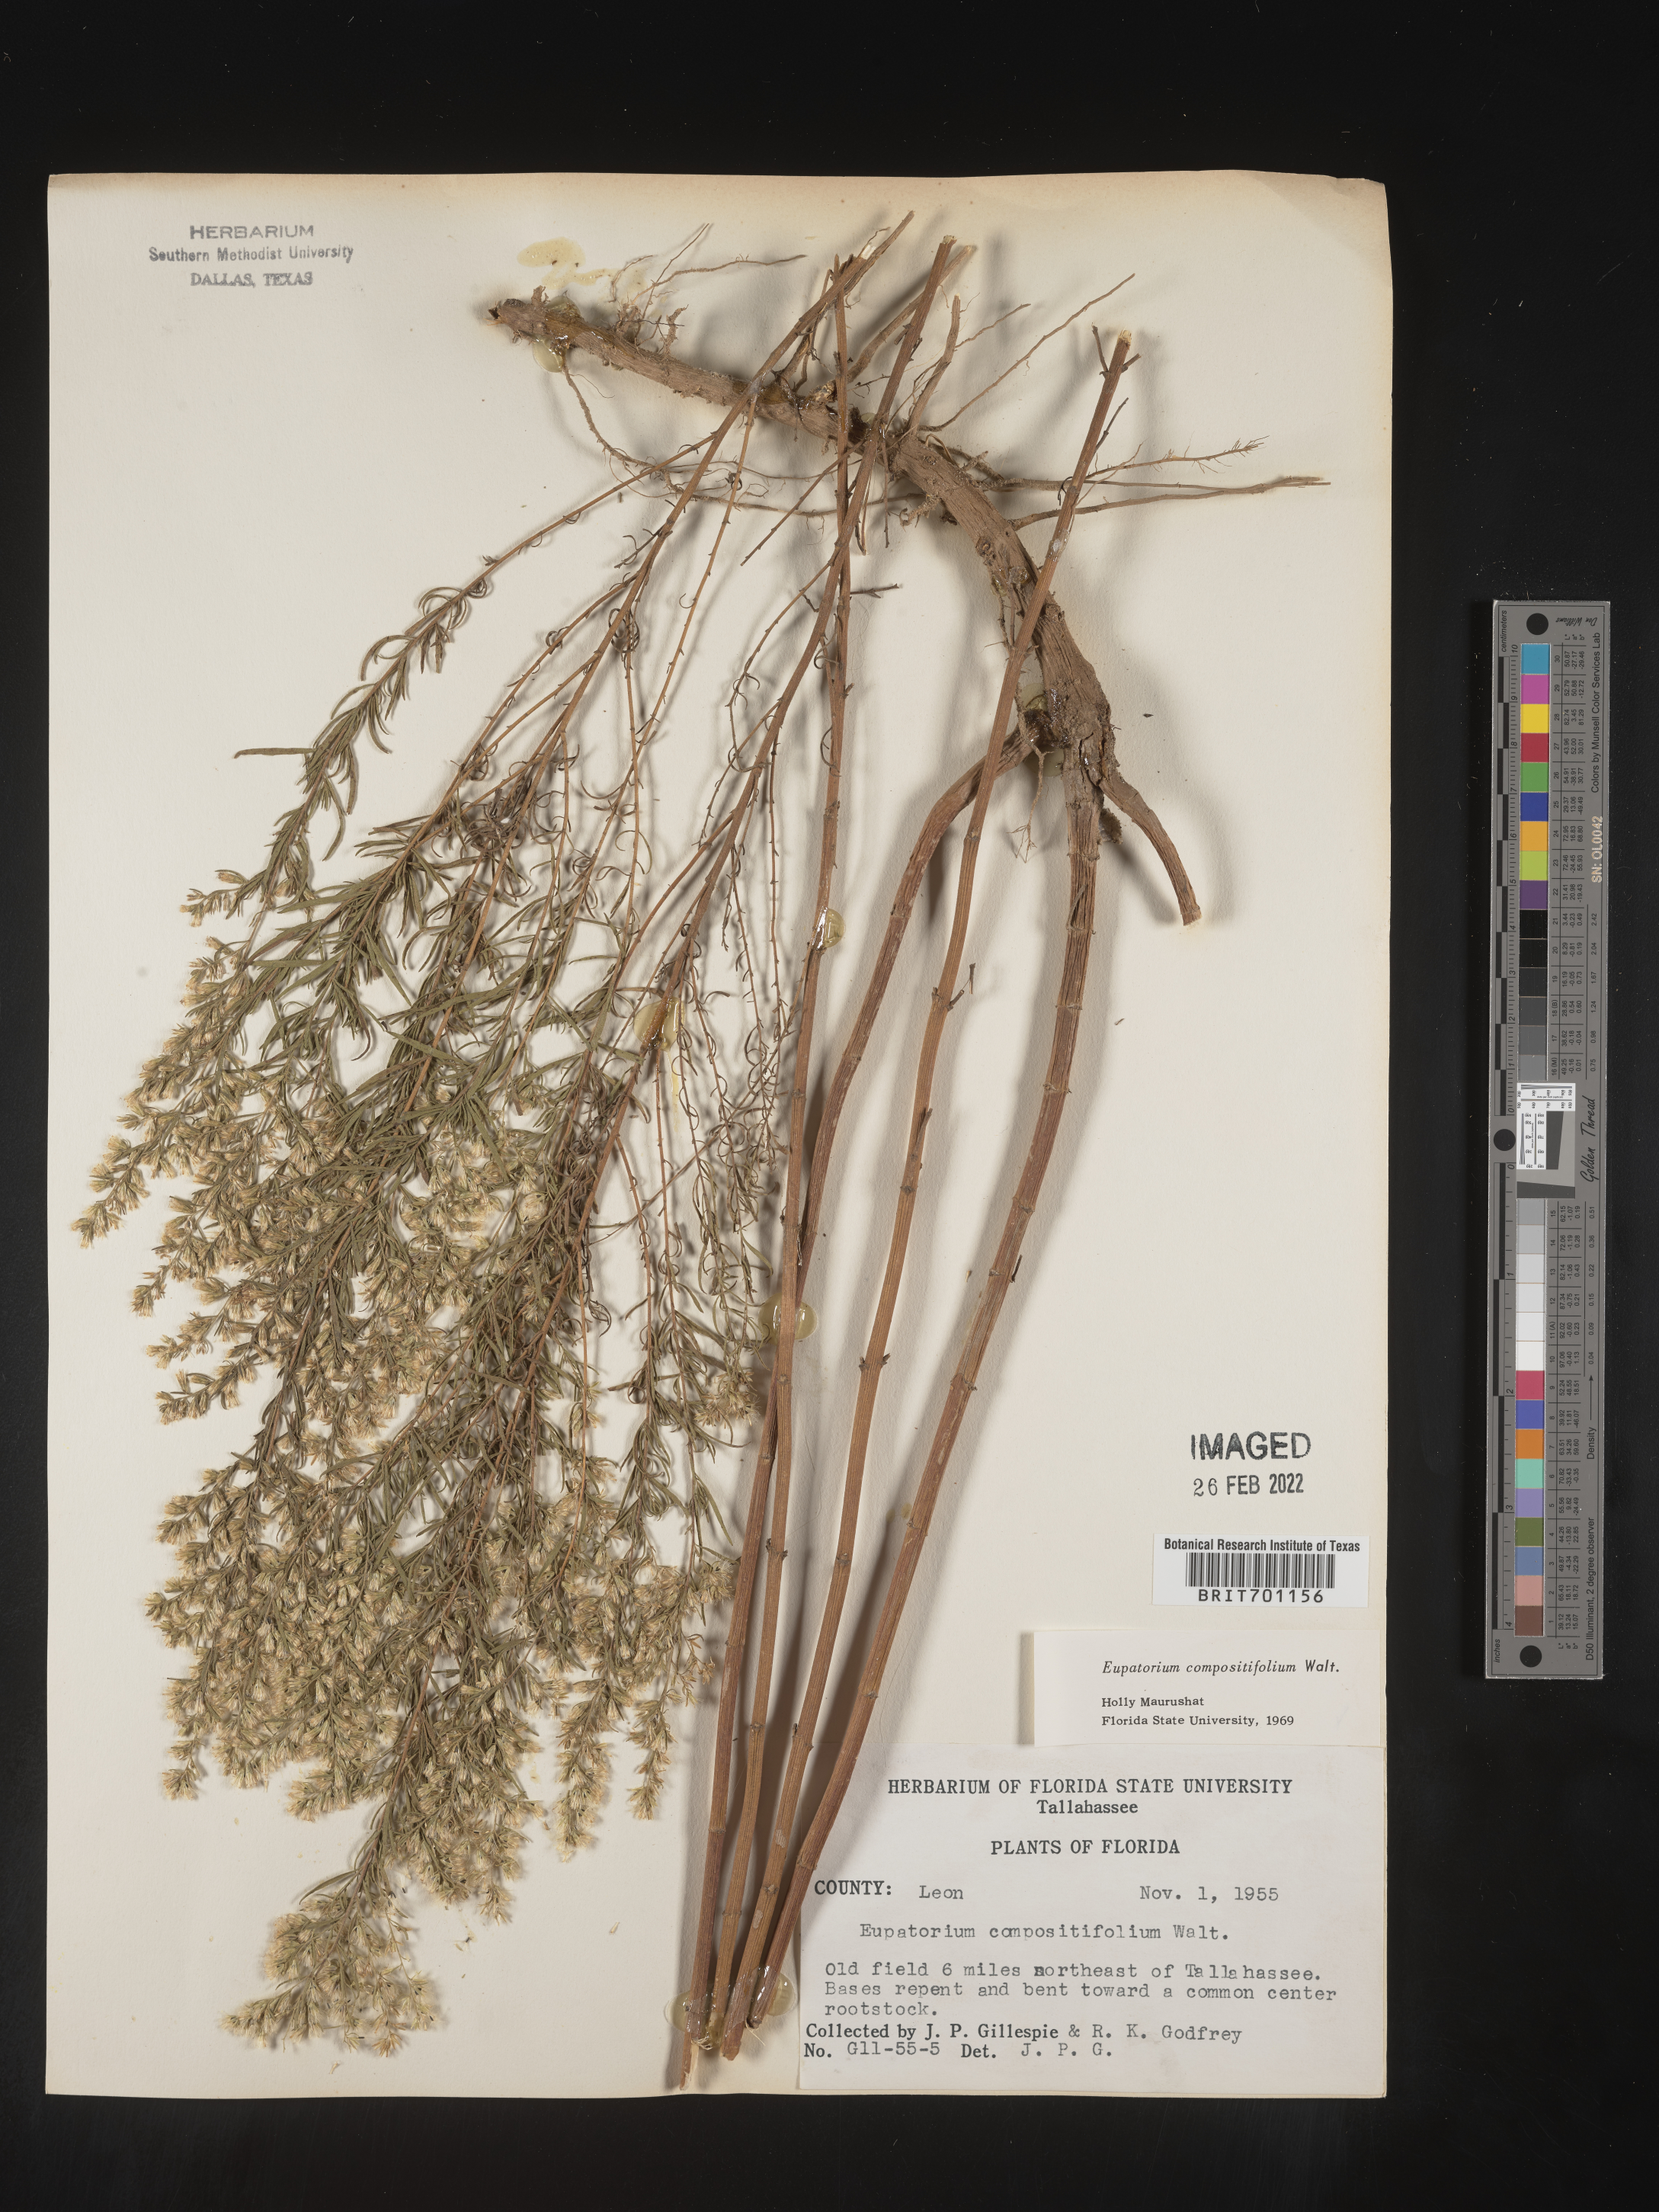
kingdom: Plantae
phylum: Tracheophyta
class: Magnoliopsida
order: Asterales
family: Asteraceae
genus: Eupatorium
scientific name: Eupatorium compositifolium
